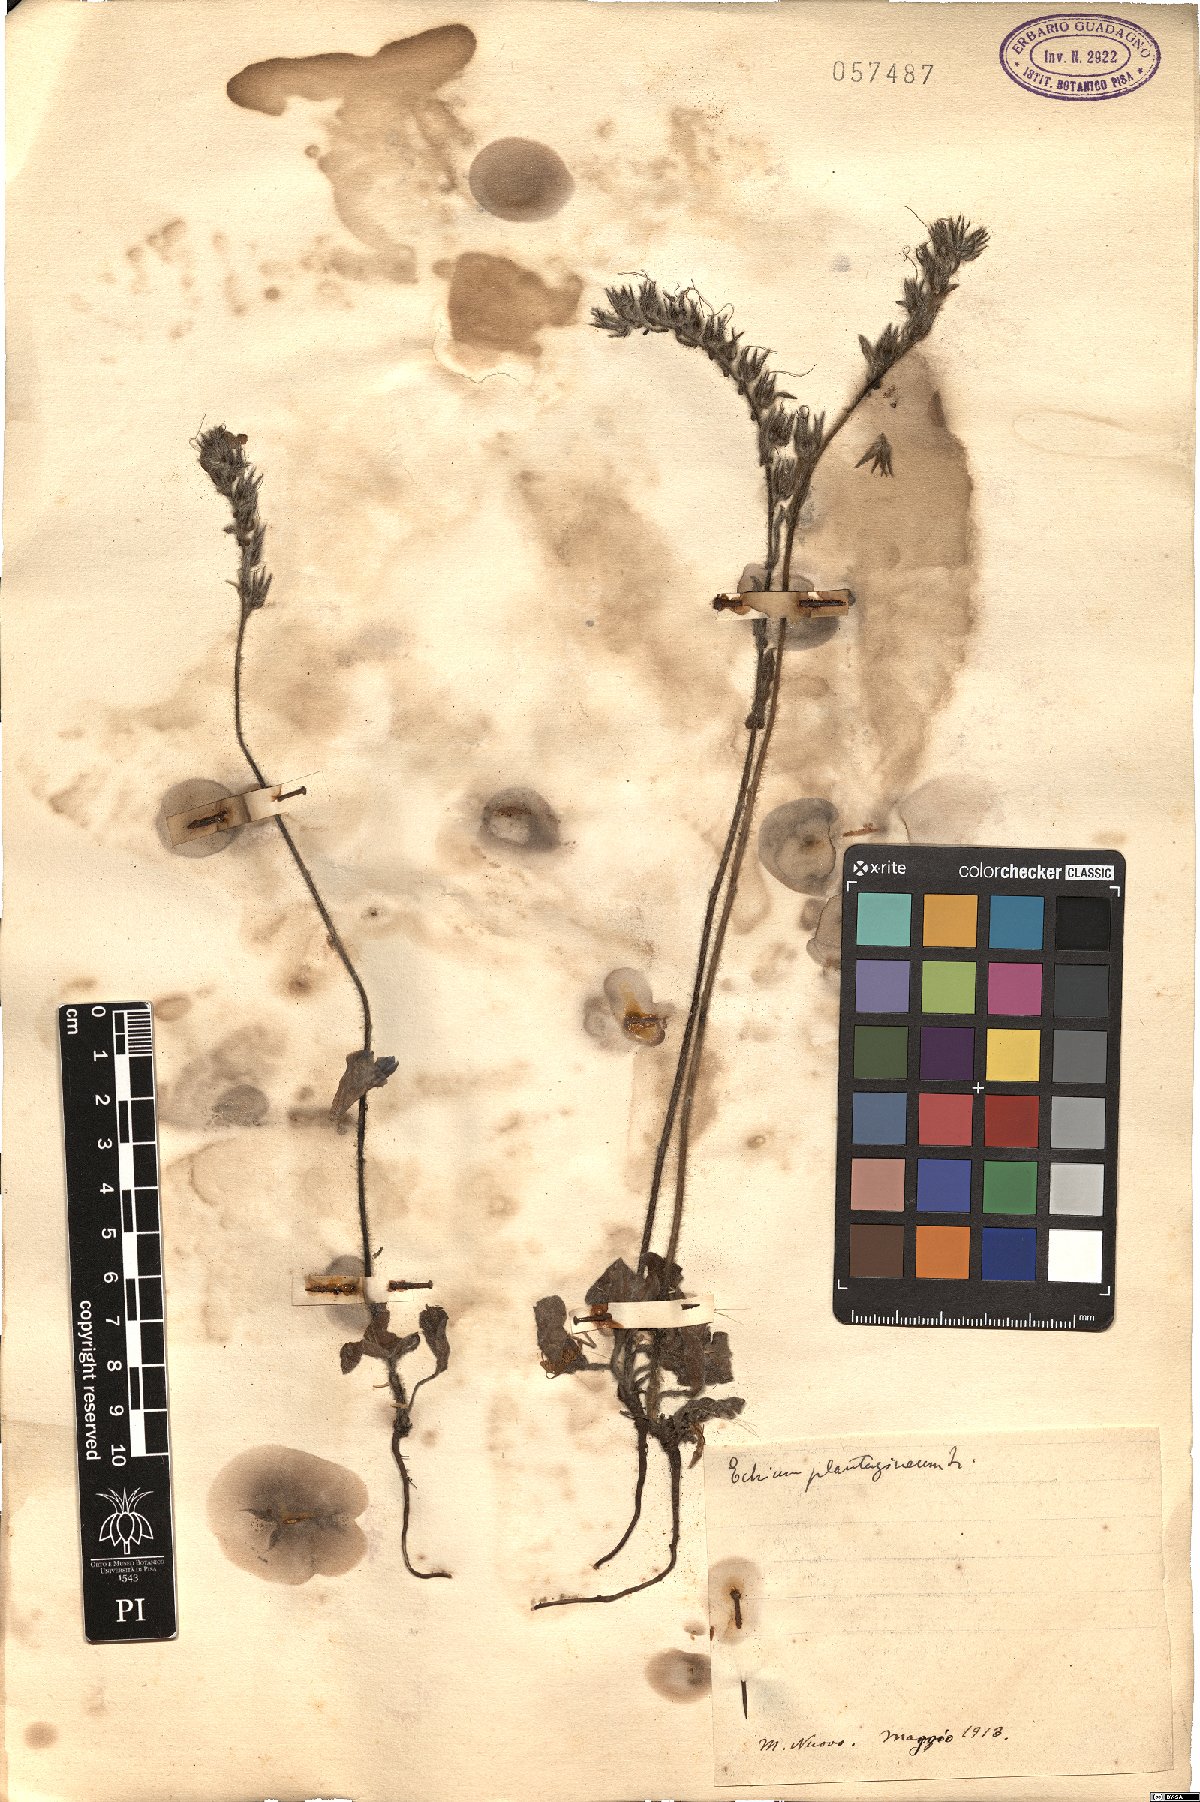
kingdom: Plantae
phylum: Tracheophyta
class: Magnoliopsida
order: Boraginales
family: Boraginaceae
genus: Echium
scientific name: Echium plantagineum
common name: Purple viper's-bugloss
